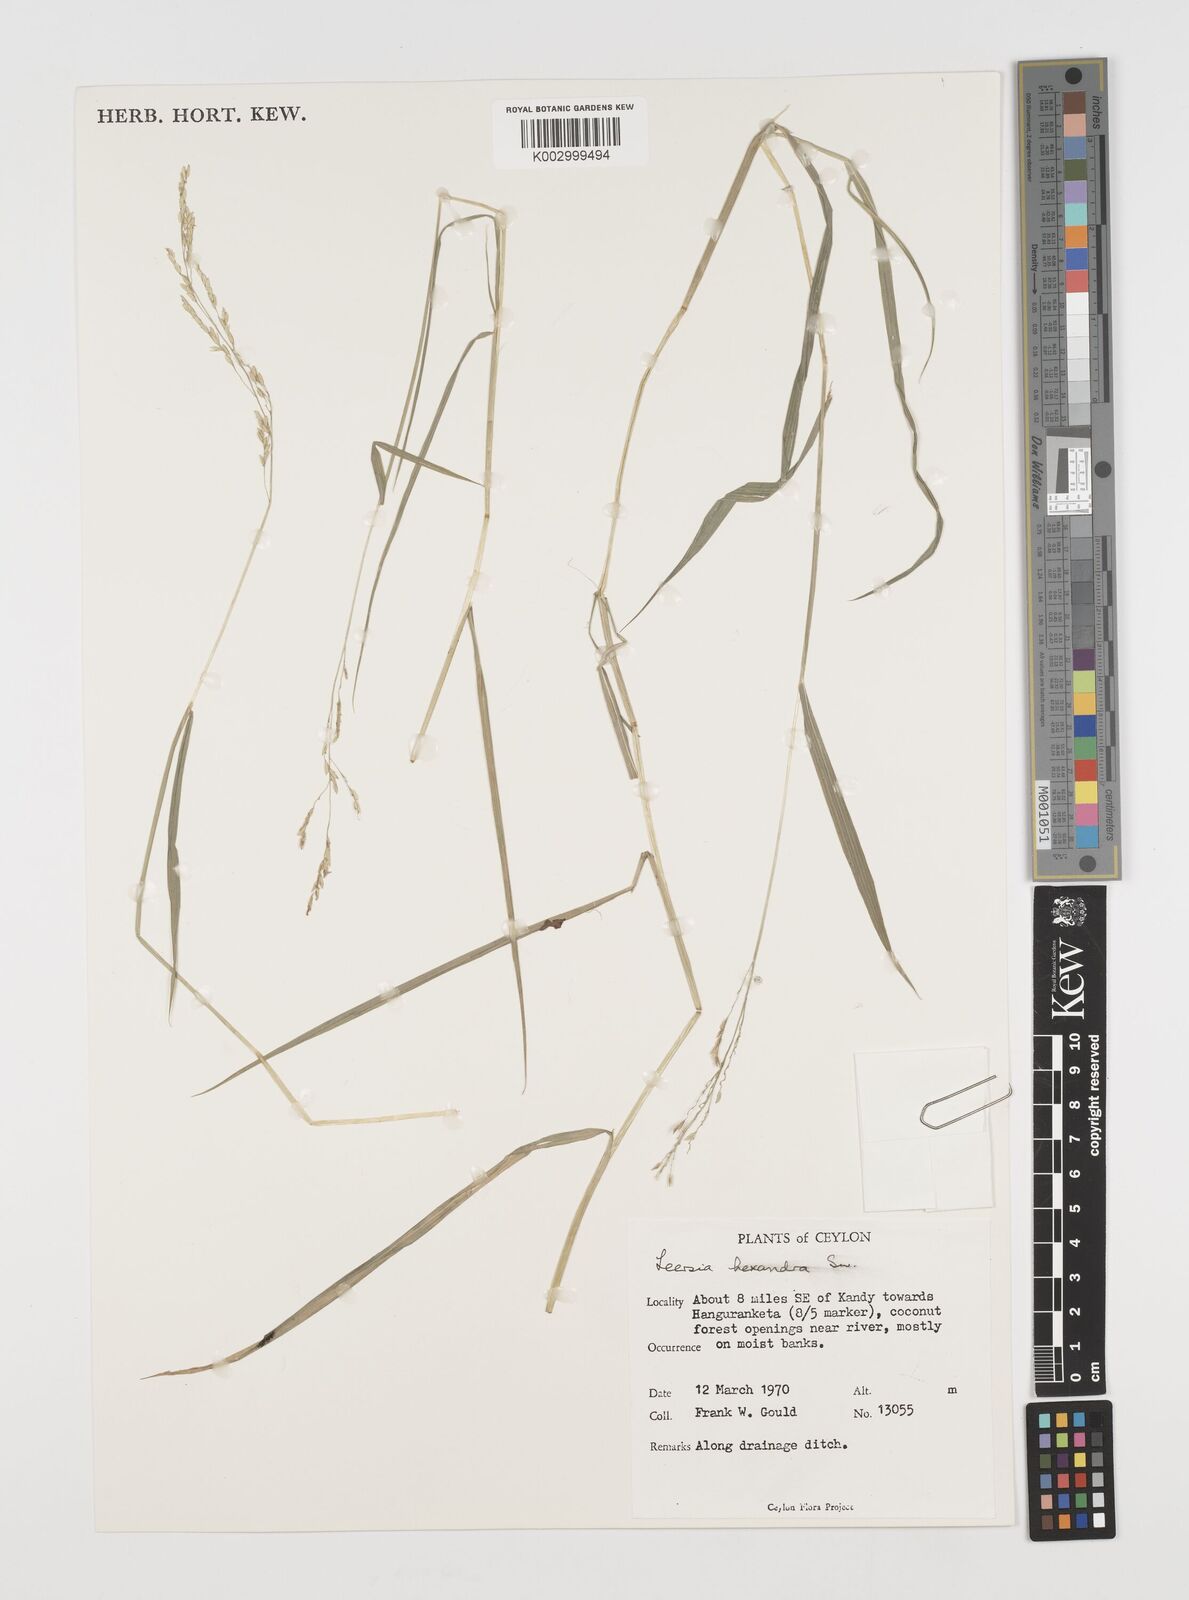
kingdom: Plantae
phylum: Tracheophyta
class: Liliopsida
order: Poales
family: Poaceae
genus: Leersia
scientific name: Leersia hexandra
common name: Southern cut grass
